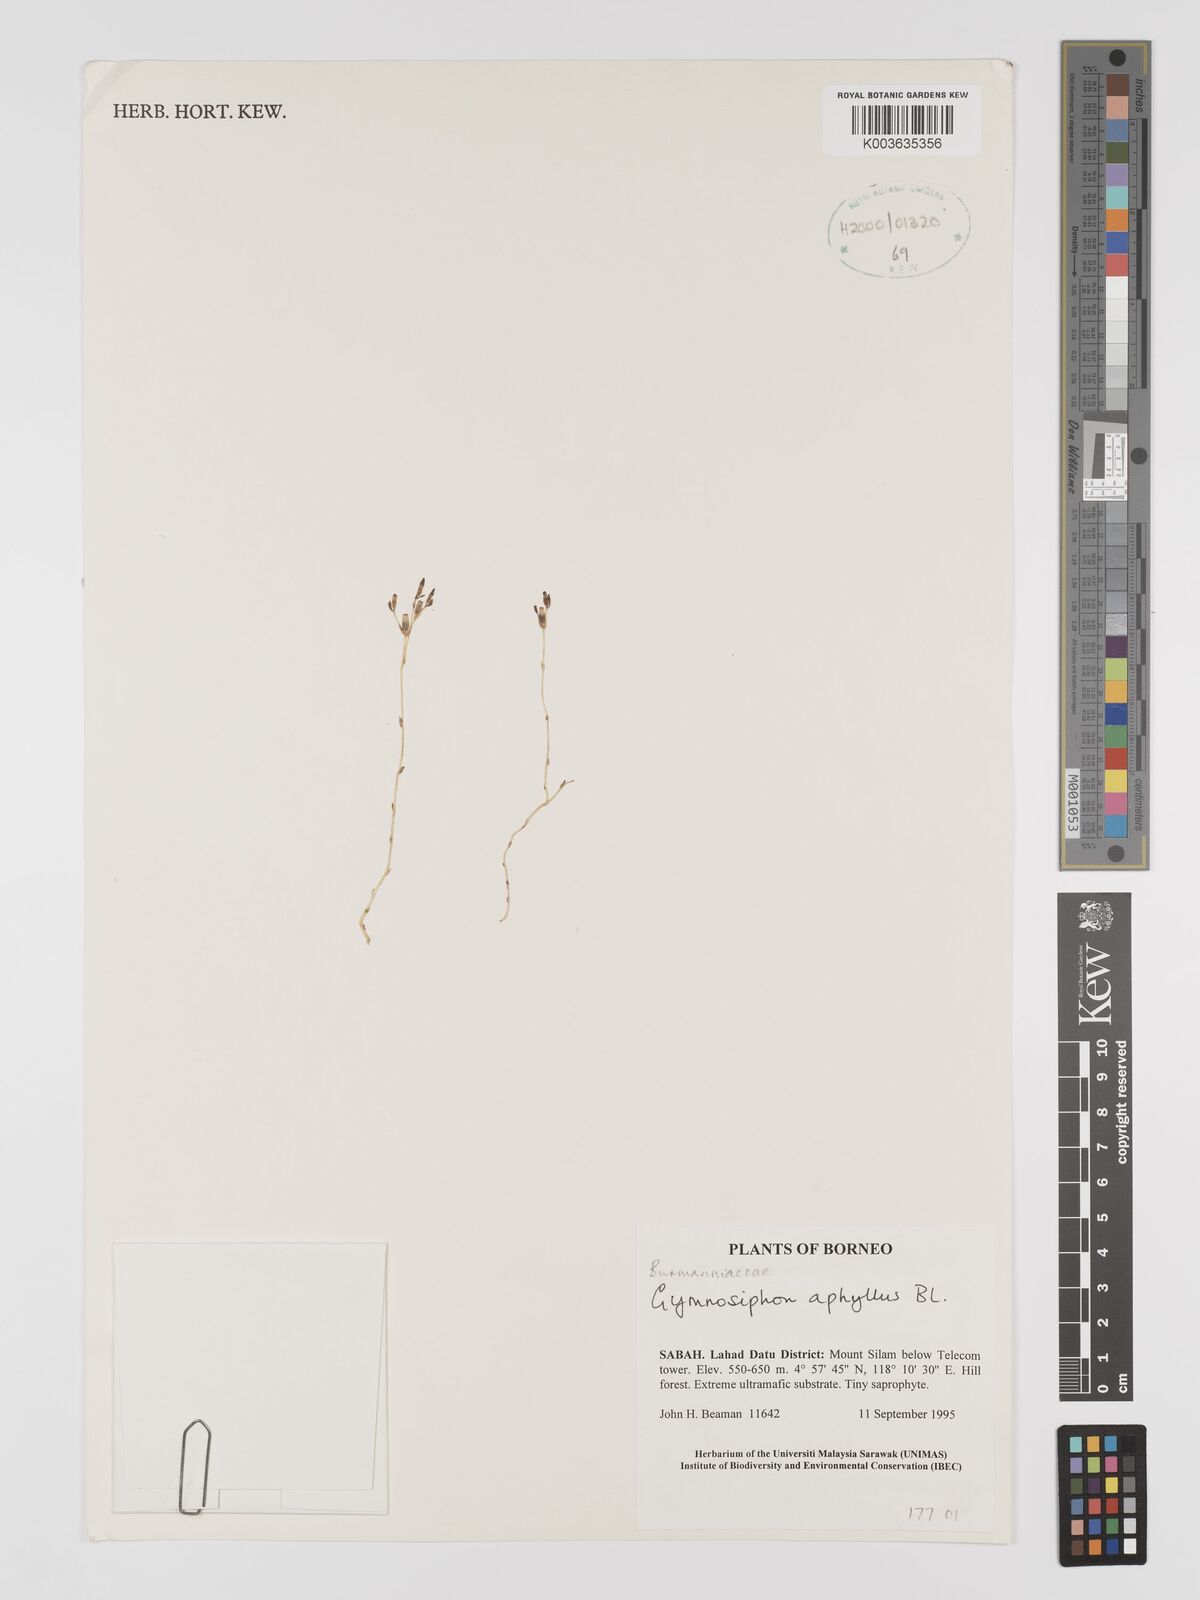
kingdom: Plantae
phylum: Tracheophyta
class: Liliopsida
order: Dioscoreales
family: Burmanniaceae
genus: Gymnosiphon
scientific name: Gymnosiphon aphyllus
